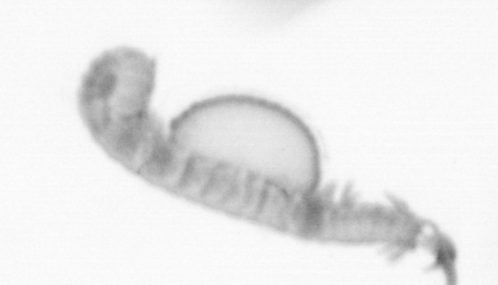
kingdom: Animalia
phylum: Annelida
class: Polychaeta
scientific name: Polychaeta
